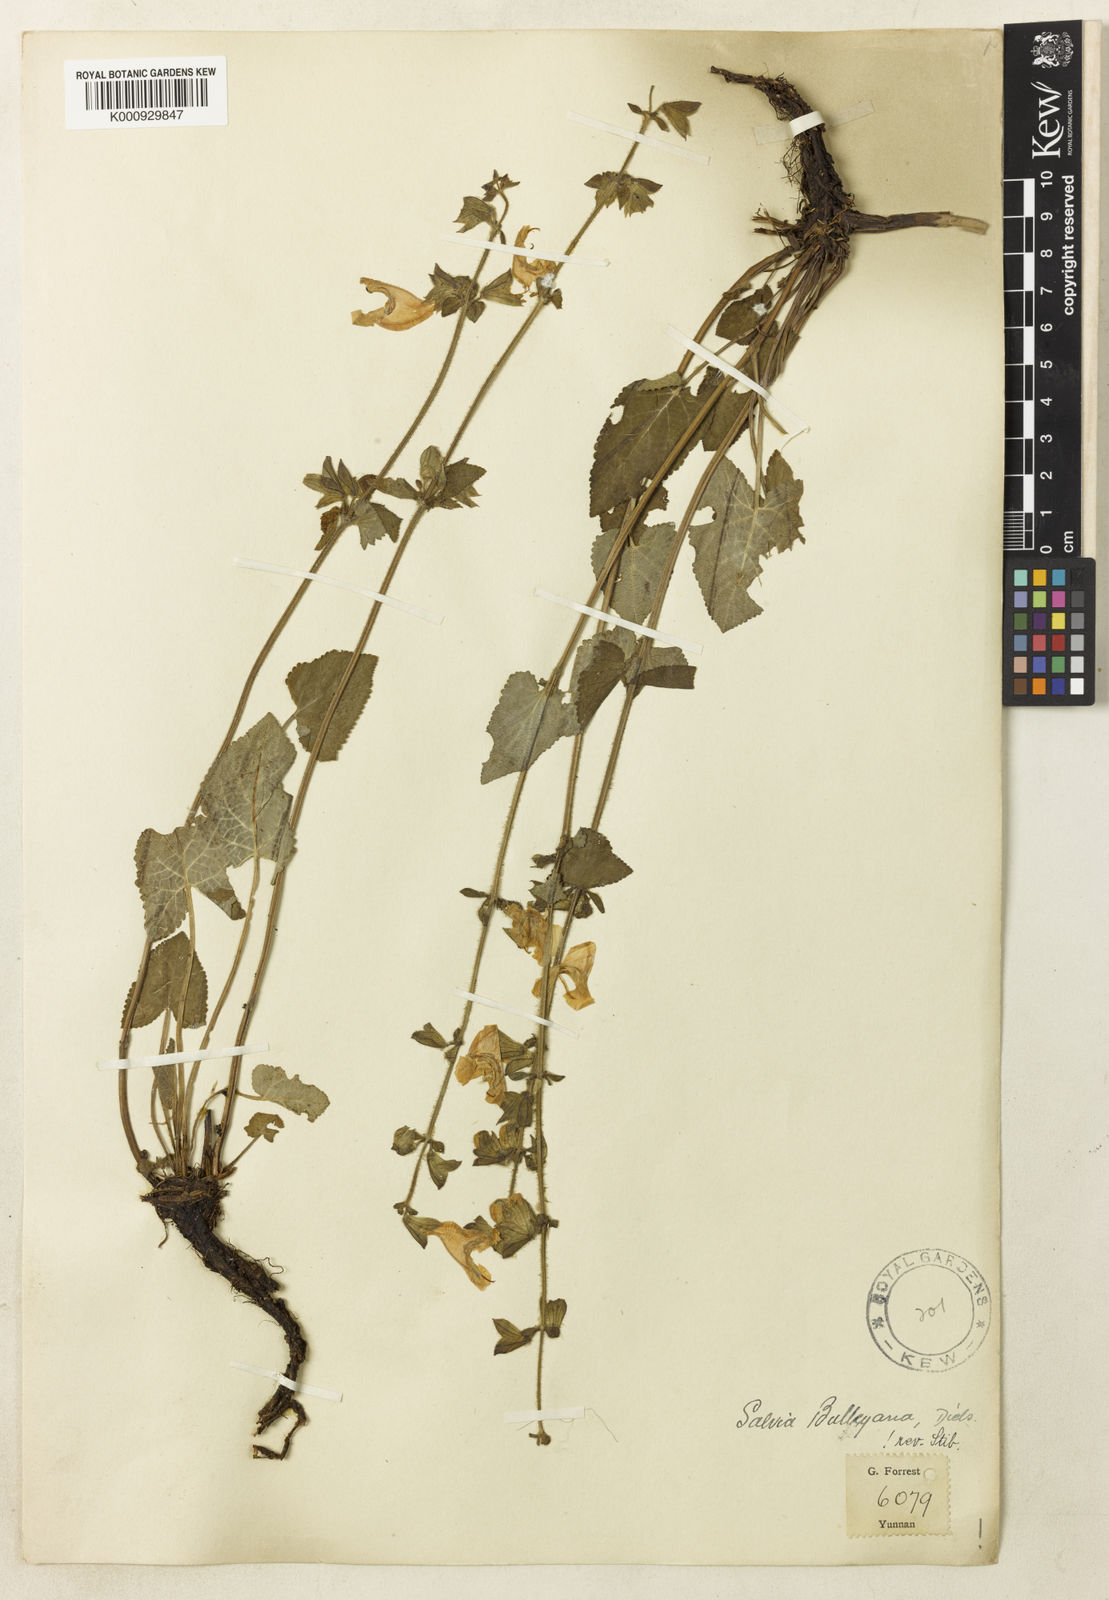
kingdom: Plantae
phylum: Tracheophyta
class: Magnoliopsida
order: Lamiales
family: Lamiaceae
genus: Salvia
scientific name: Salvia bifidocalyx
